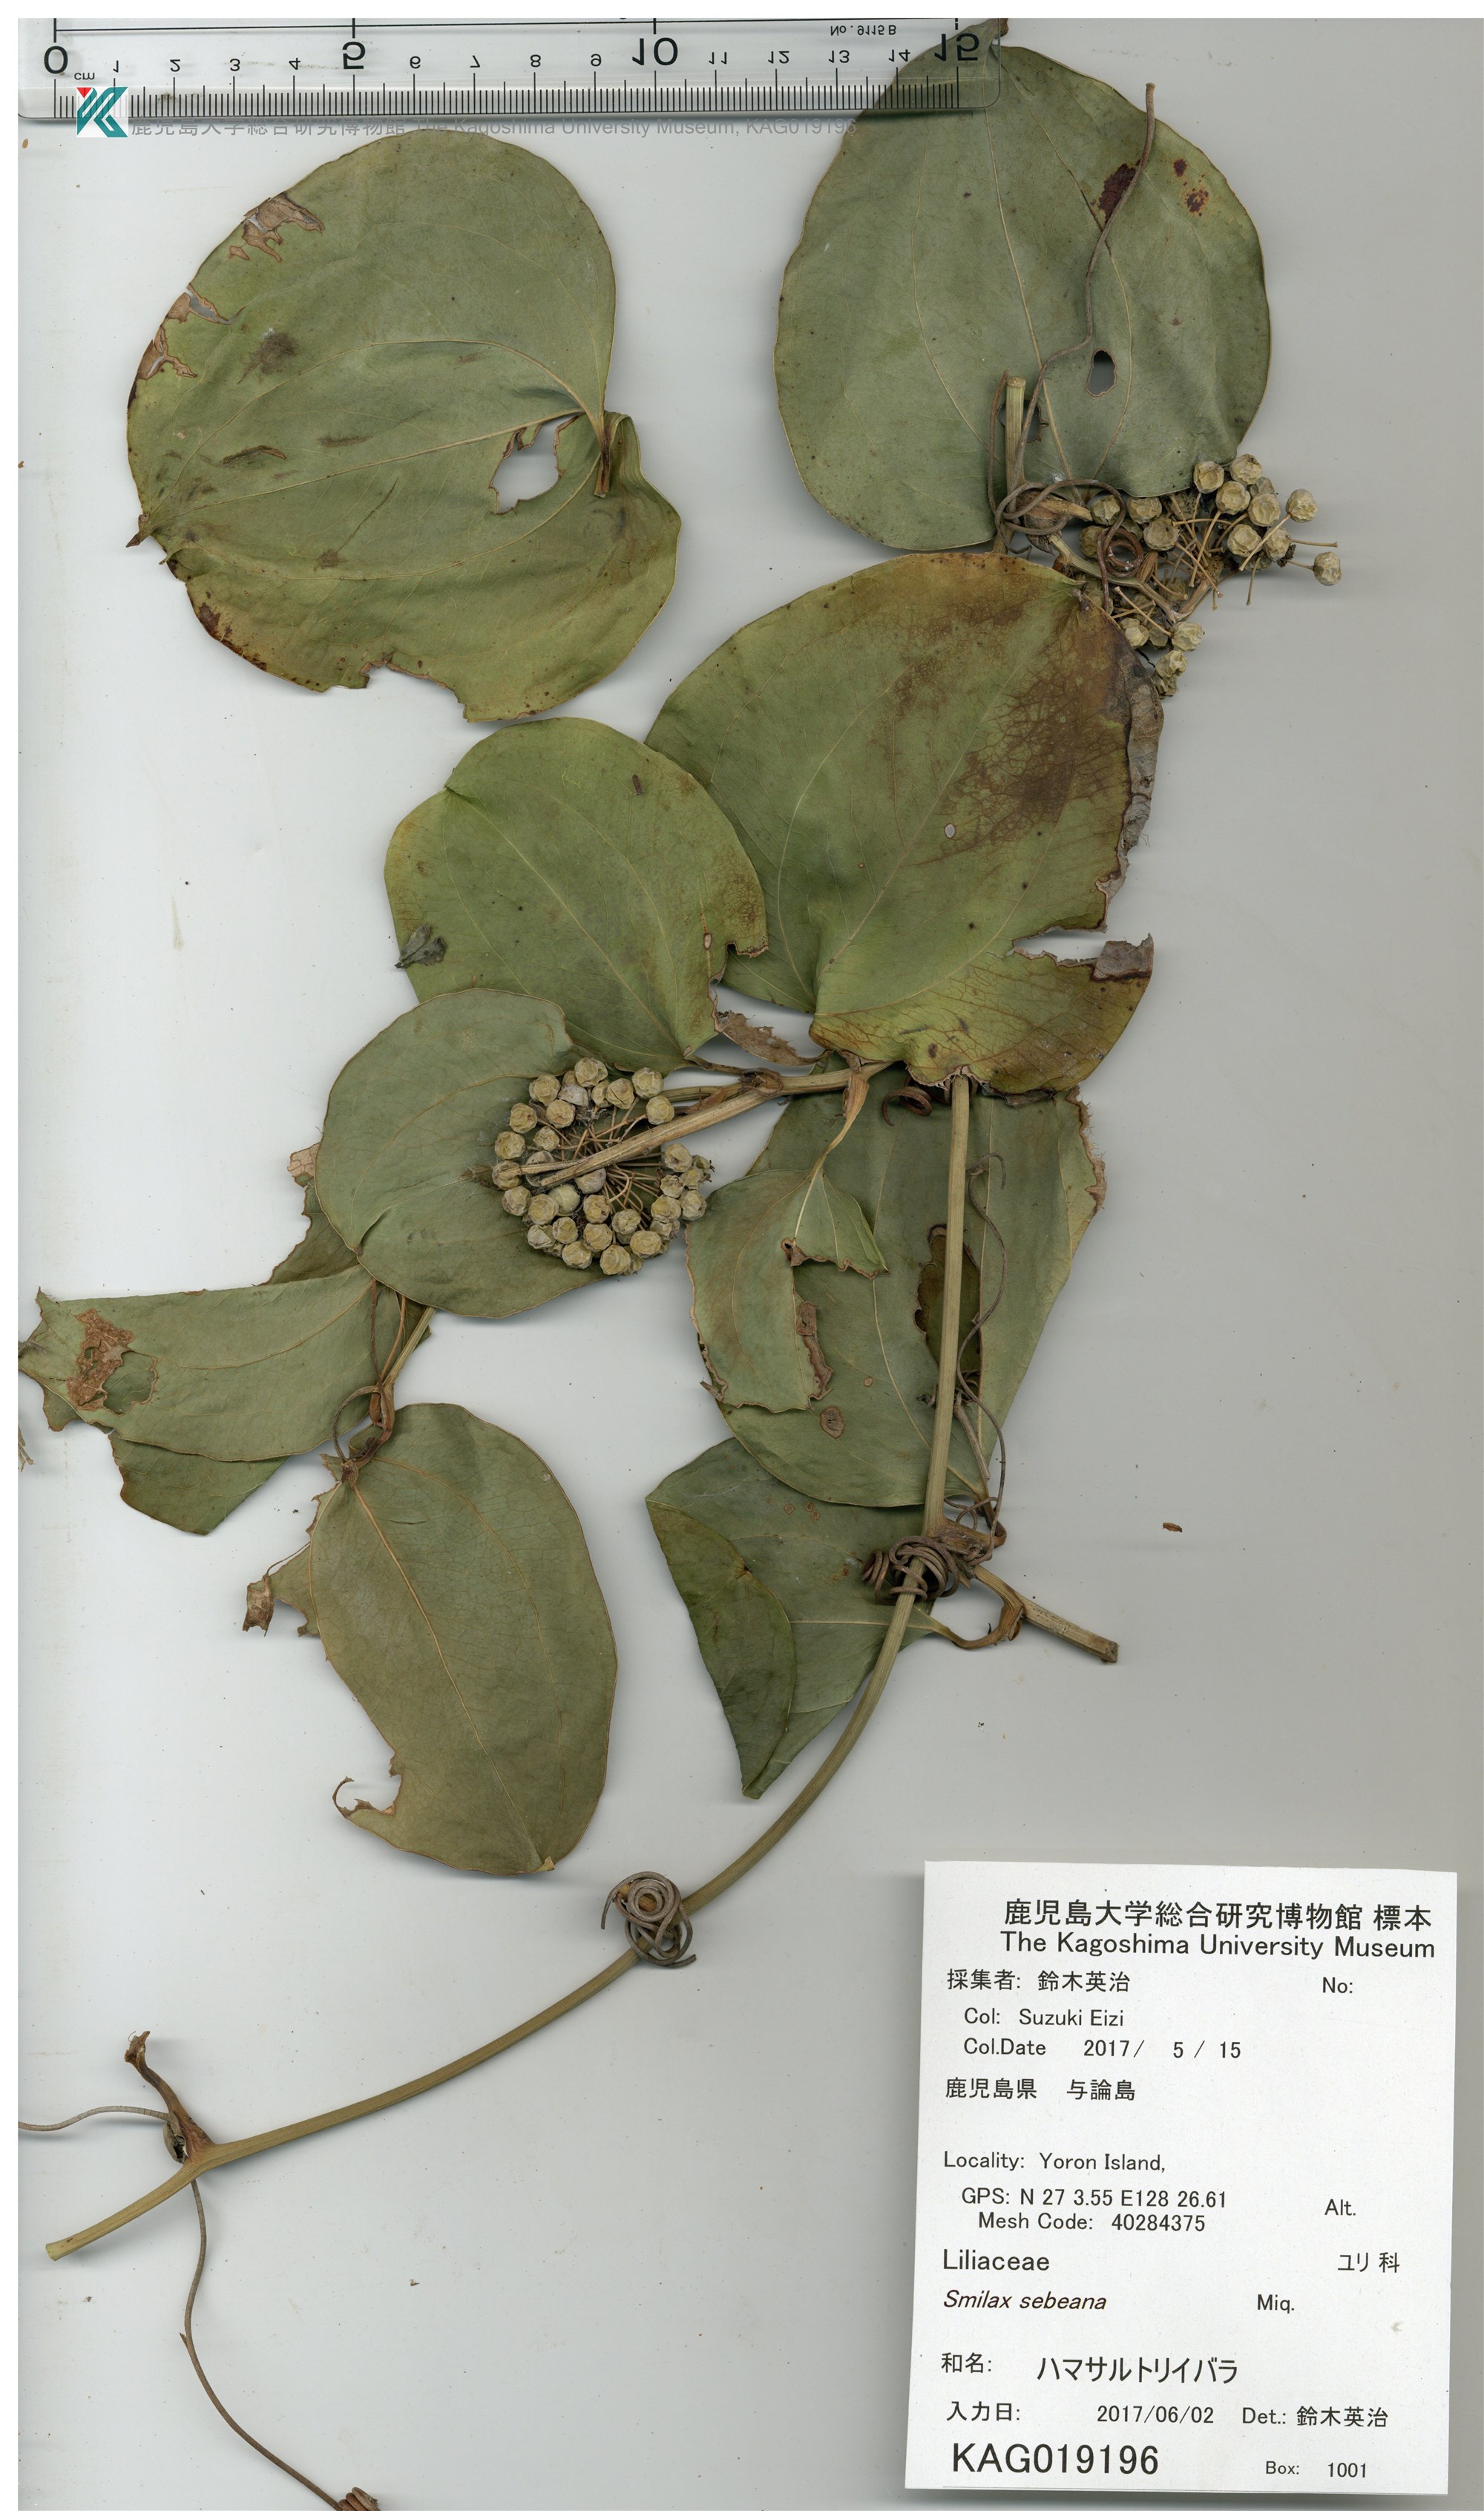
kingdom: Plantae
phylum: Tracheophyta
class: Liliopsida
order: Liliales
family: Smilacaceae
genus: Smilax
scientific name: Smilax sebeana
